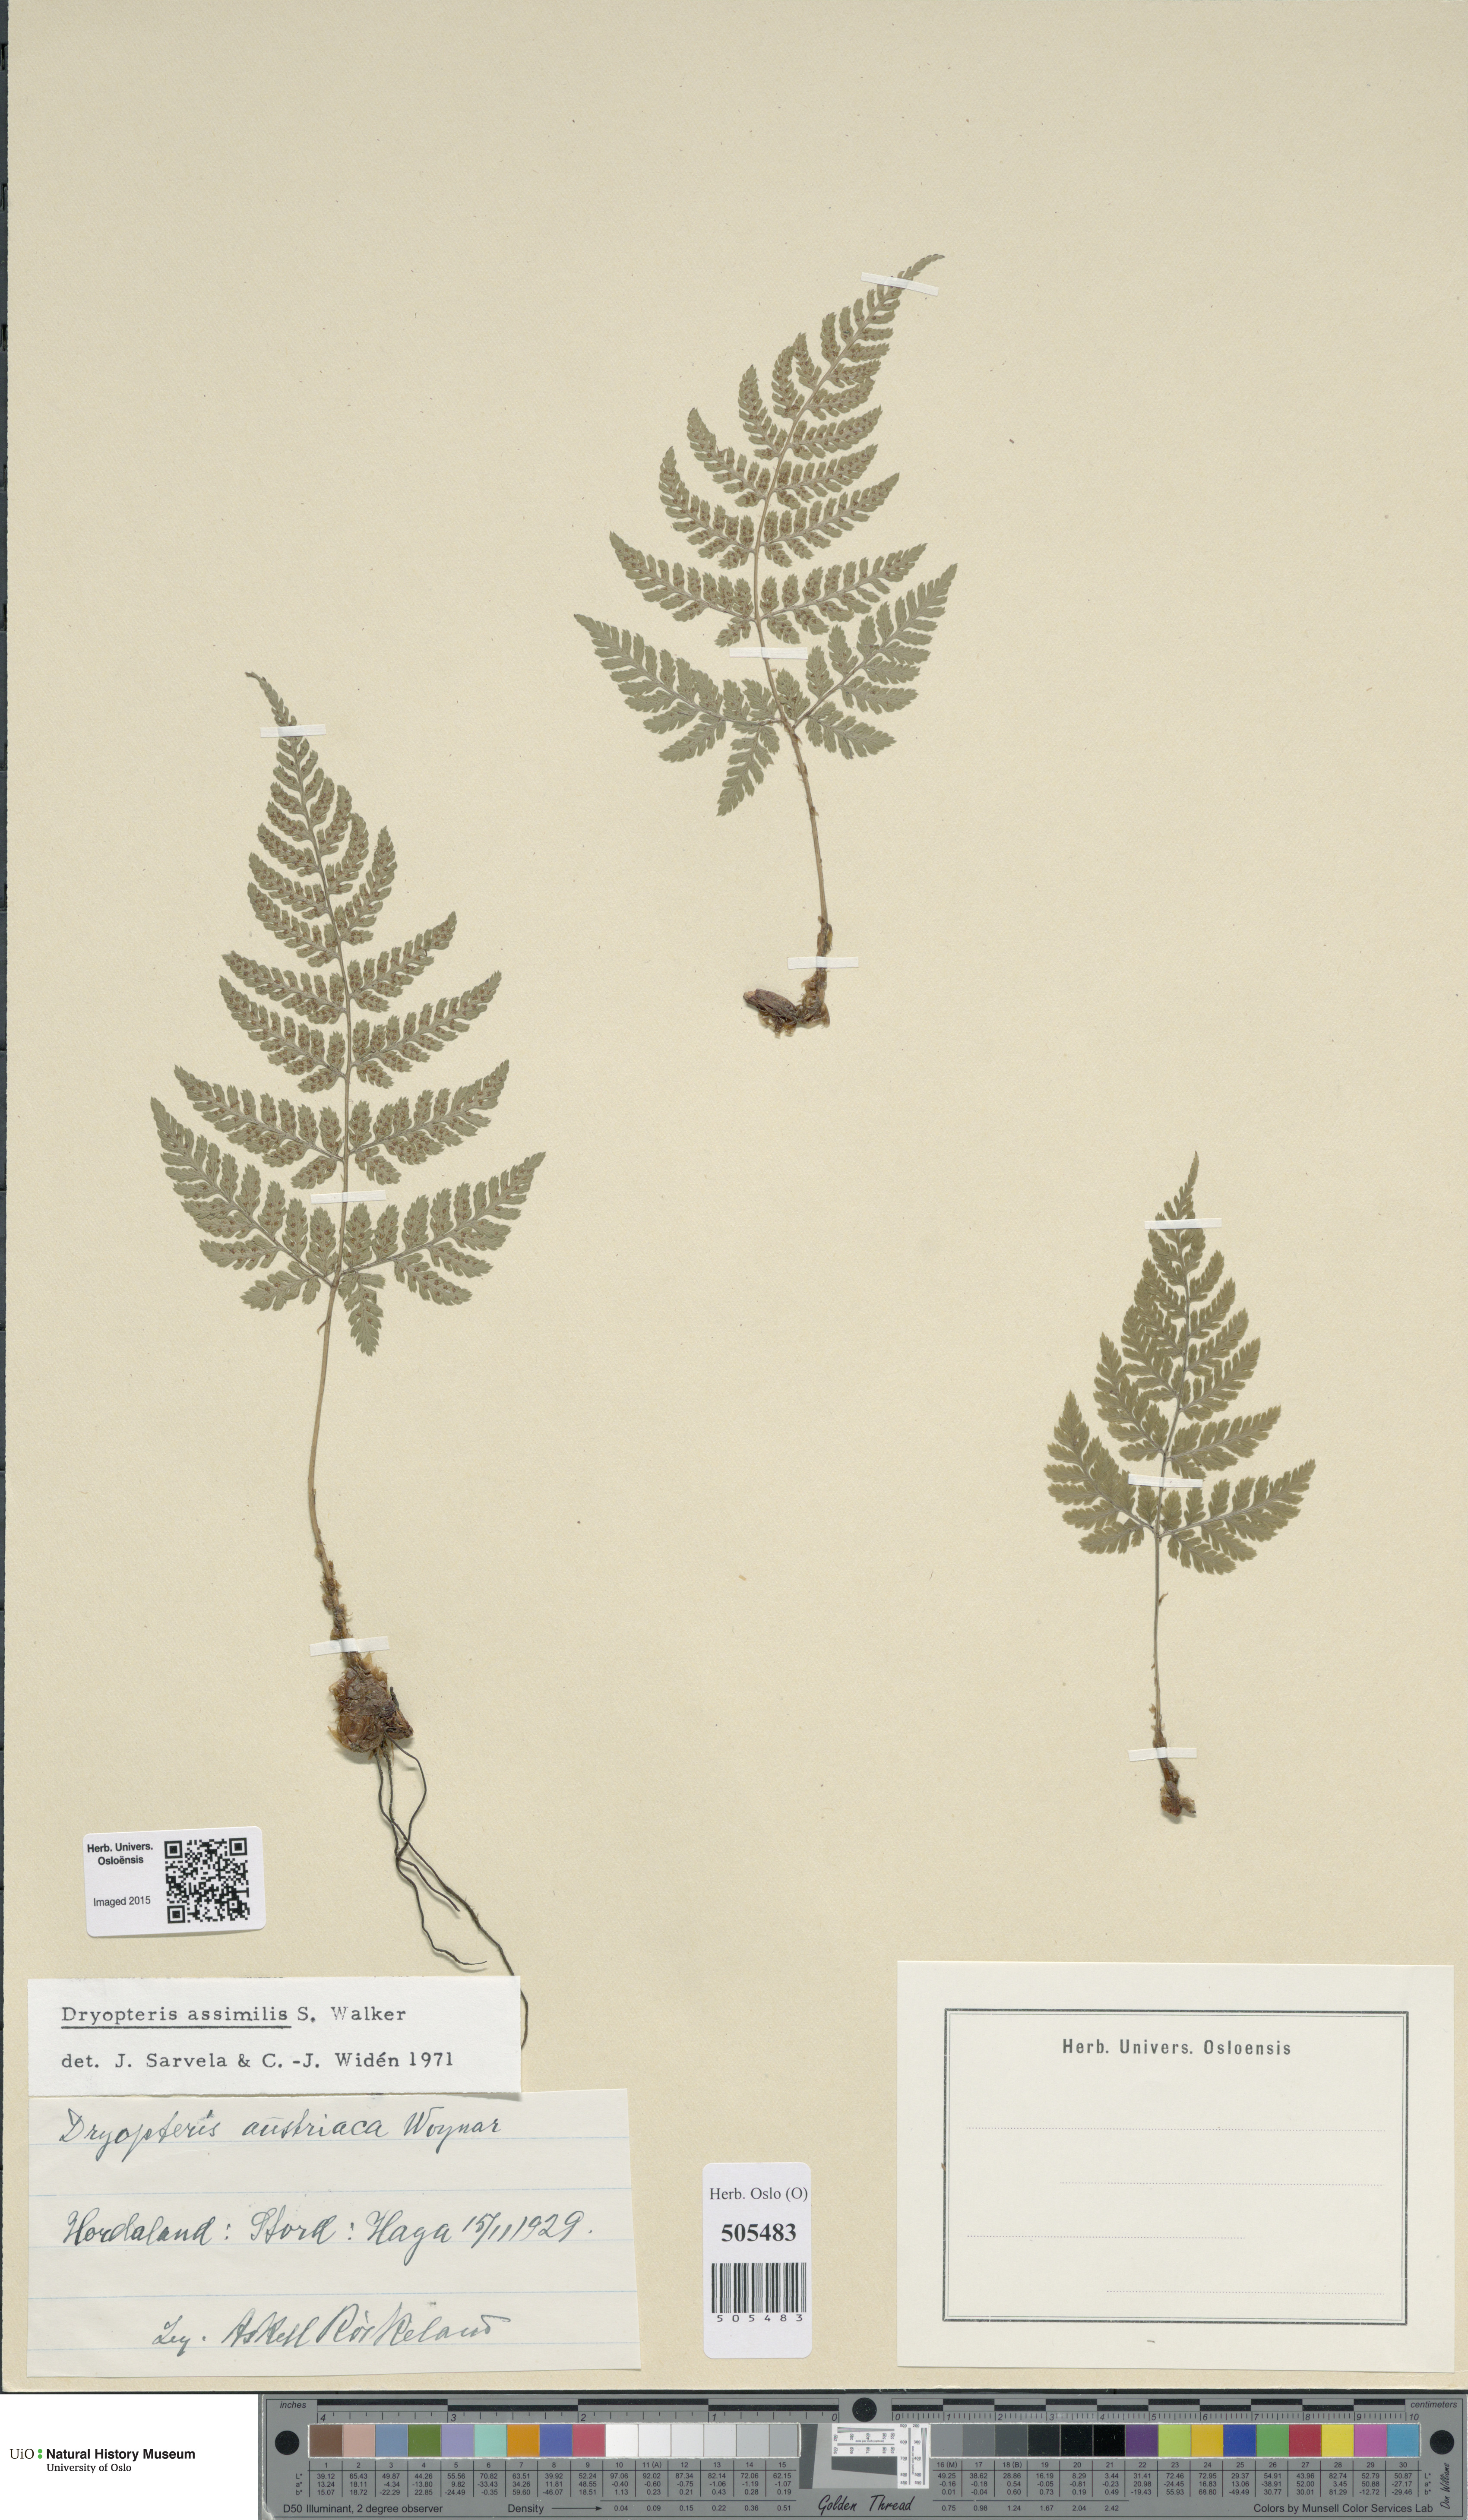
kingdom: Plantae
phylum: Tracheophyta
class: Polypodiopsida
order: Polypodiales
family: Dryopteridaceae
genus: Dryopteris
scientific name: Dryopteris expansa
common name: Northern buckler fern
